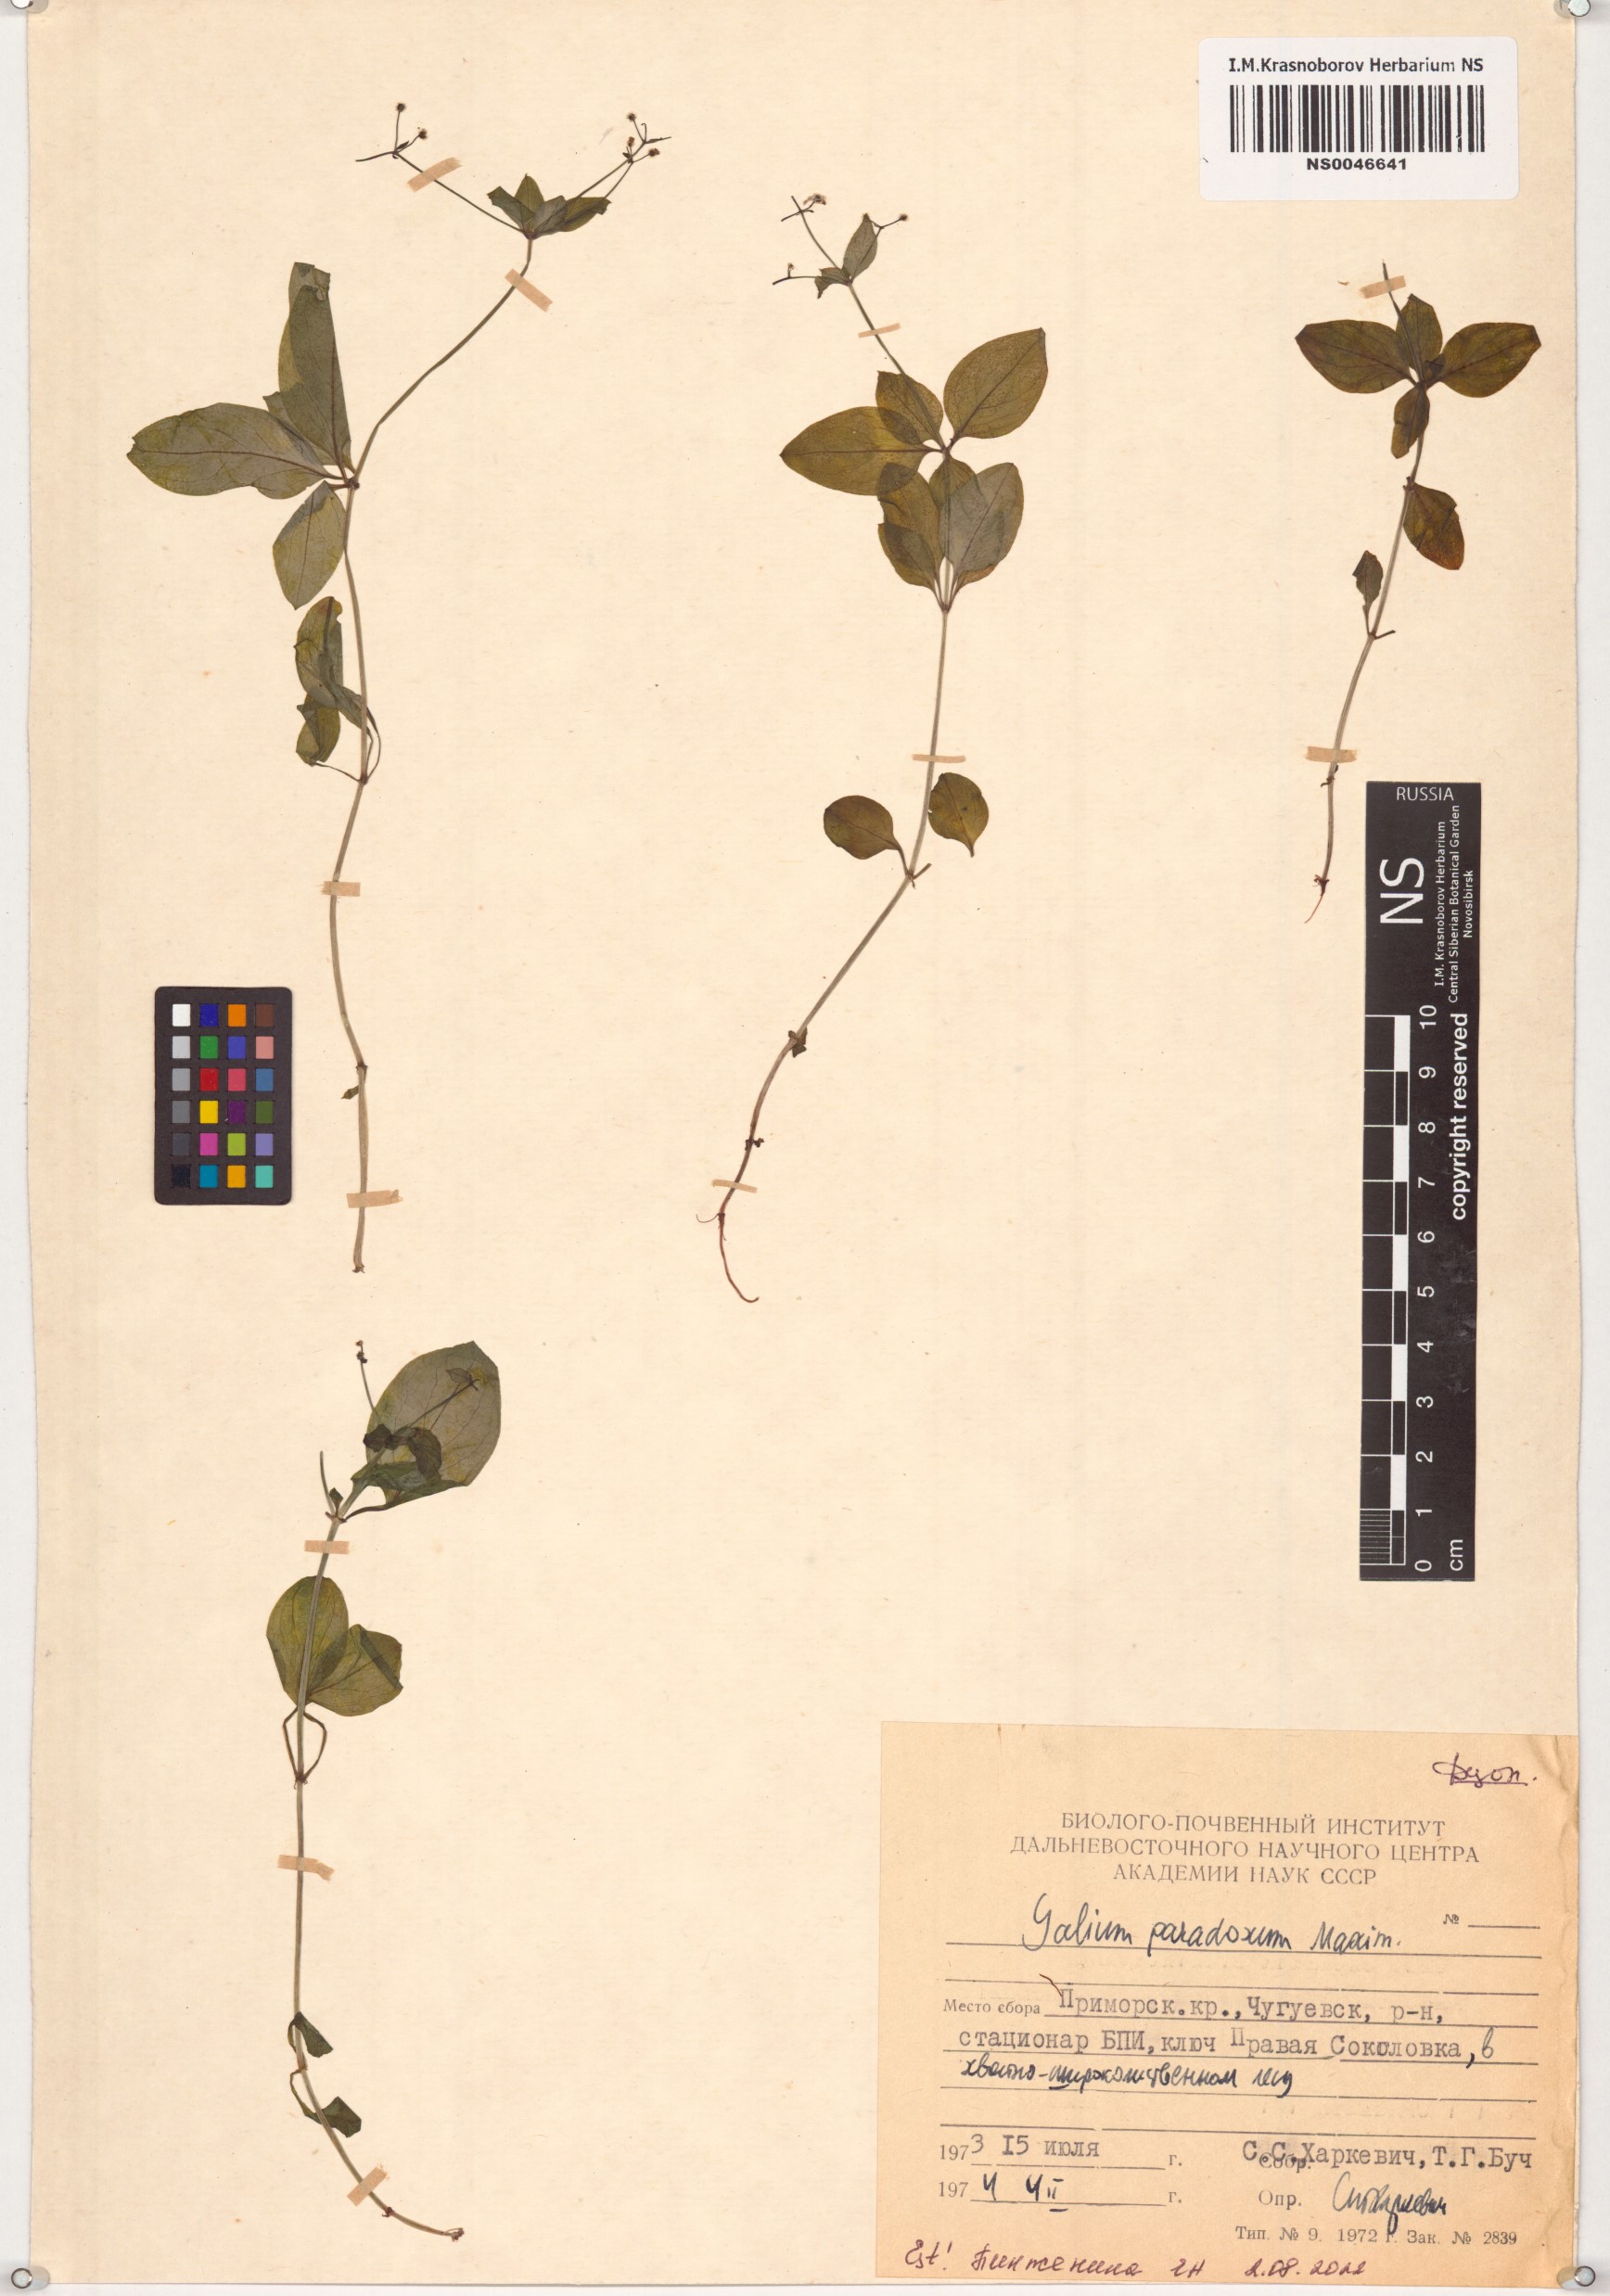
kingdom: Plantae
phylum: Tracheophyta
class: Magnoliopsida
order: Gentianales
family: Rubiaceae
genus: Pseudogalium
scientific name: Pseudogalium paradoxum
